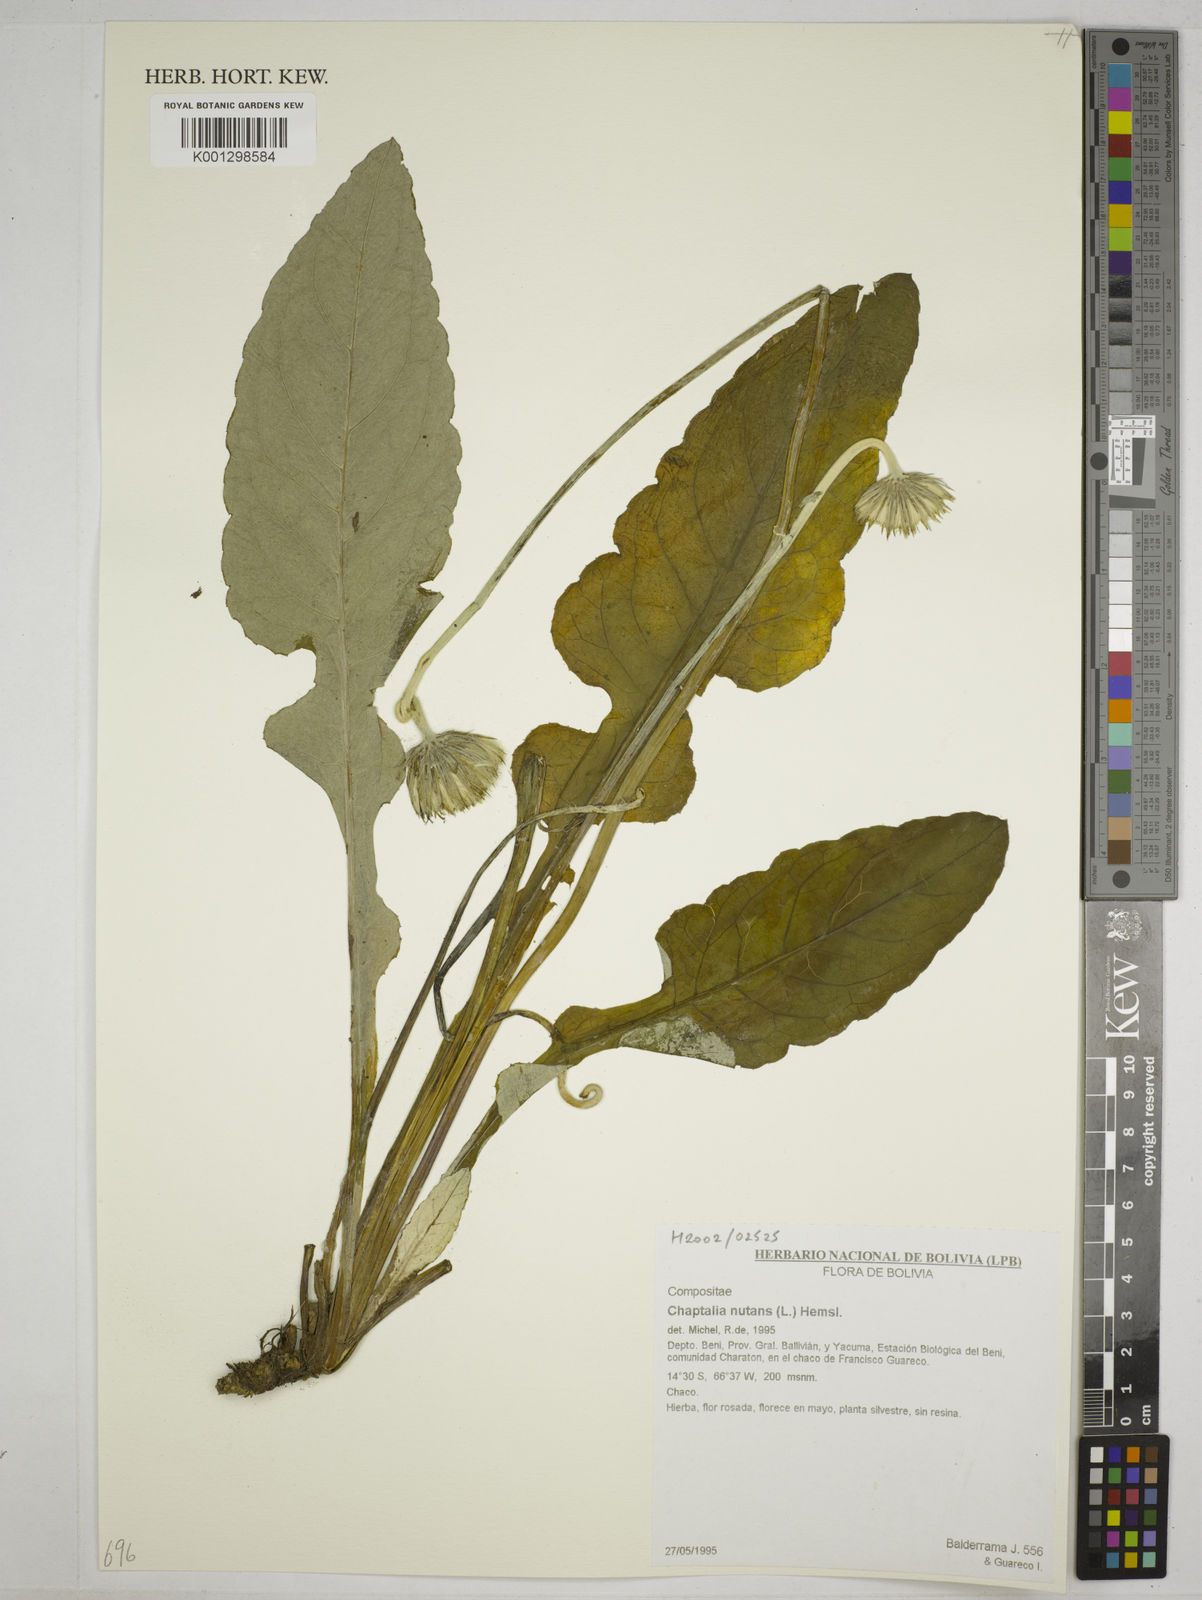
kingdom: Plantae
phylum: Tracheophyta
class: Magnoliopsida
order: Asterales
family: Asteraceae
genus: Chaptalia
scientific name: Chaptalia nutans
